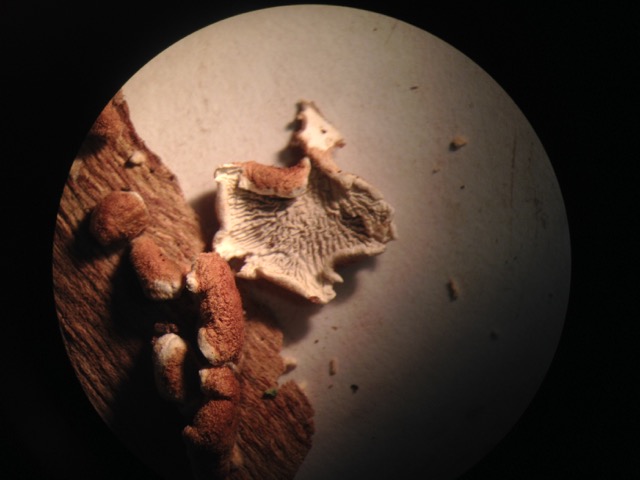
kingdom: Fungi
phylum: Basidiomycota
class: Agaricomycetes
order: Amylocorticiales
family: Amylocorticiaceae
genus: Plicaturopsis
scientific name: Plicaturopsis crispa
